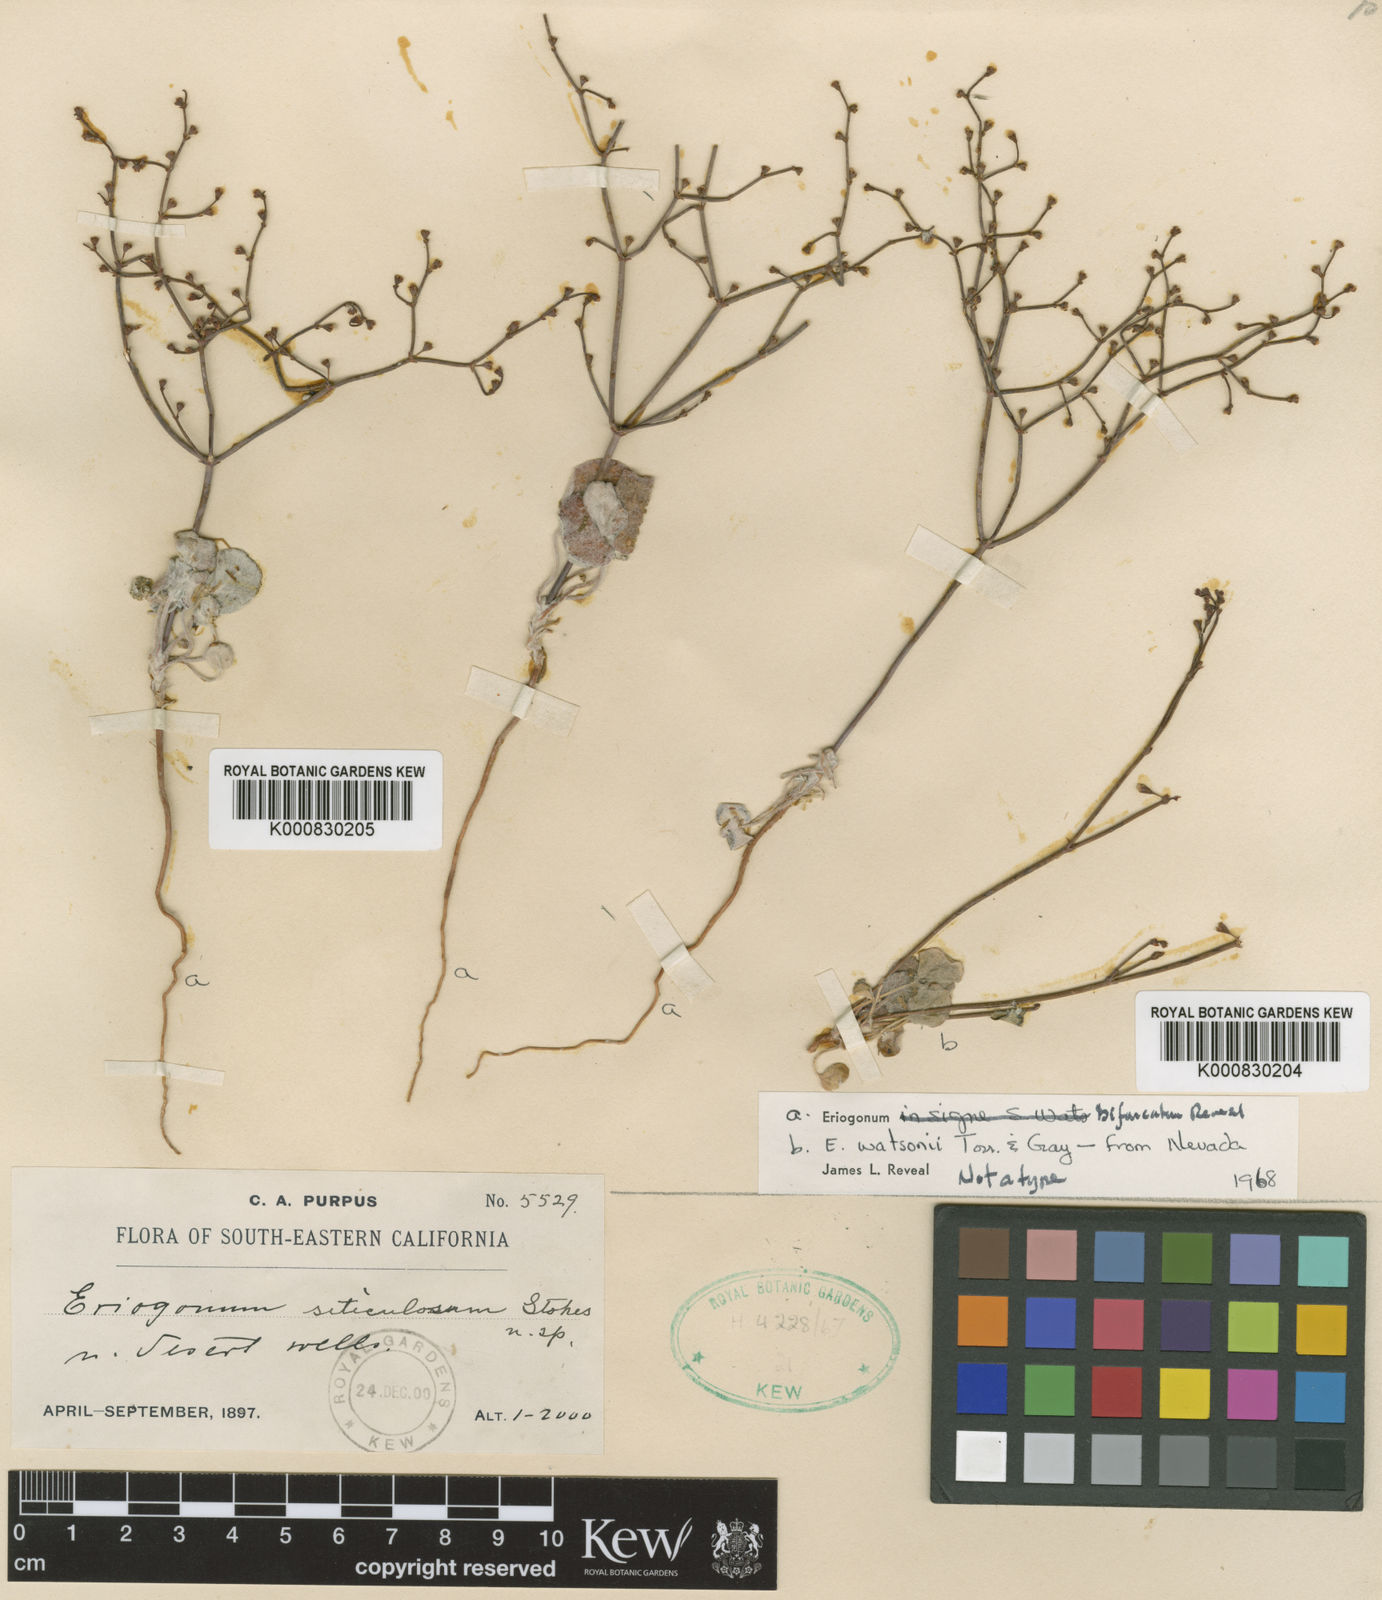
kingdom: Plantae
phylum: Tracheophyta
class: Magnoliopsida
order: Caryophyllales
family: Polygonaceae
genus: Eriogonum
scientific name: Eriogonum deflexum
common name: Skeleton-weed
